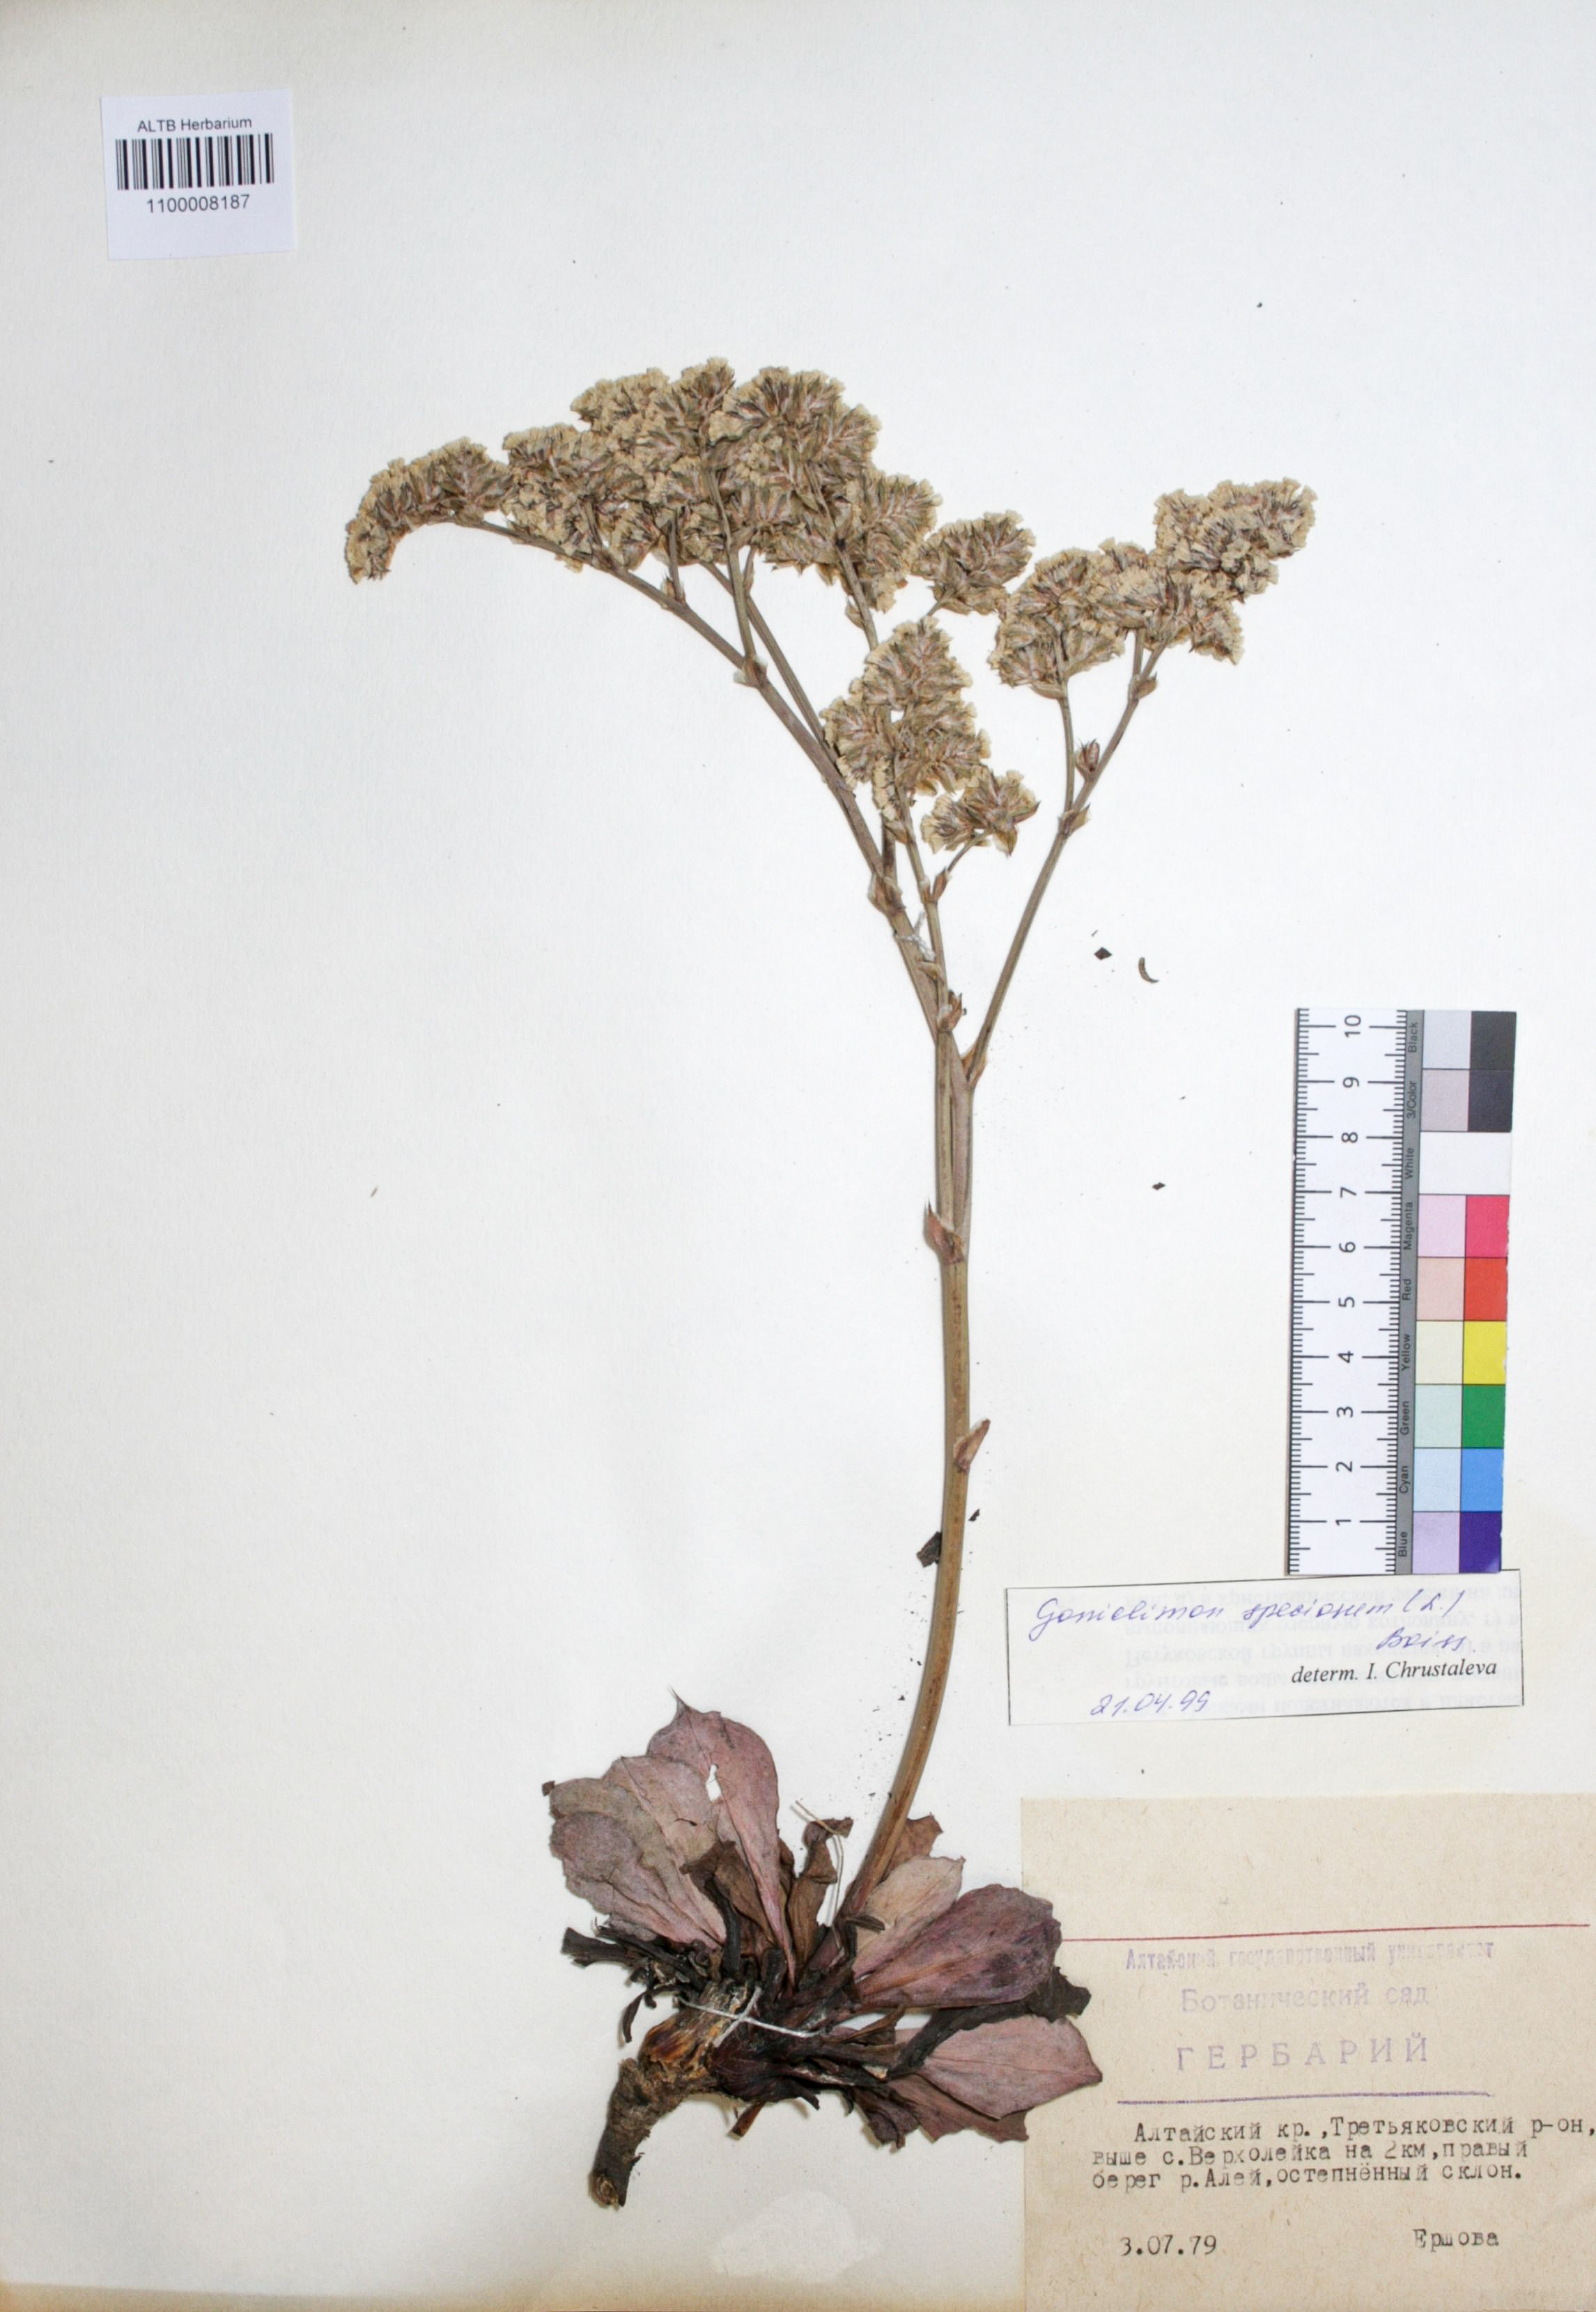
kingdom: Plantae
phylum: Tracheophyta
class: Magnoliopsida
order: Caryophyllales
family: Plumbaginaceae
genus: Goniolimon
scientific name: Goniolimon speciosum
